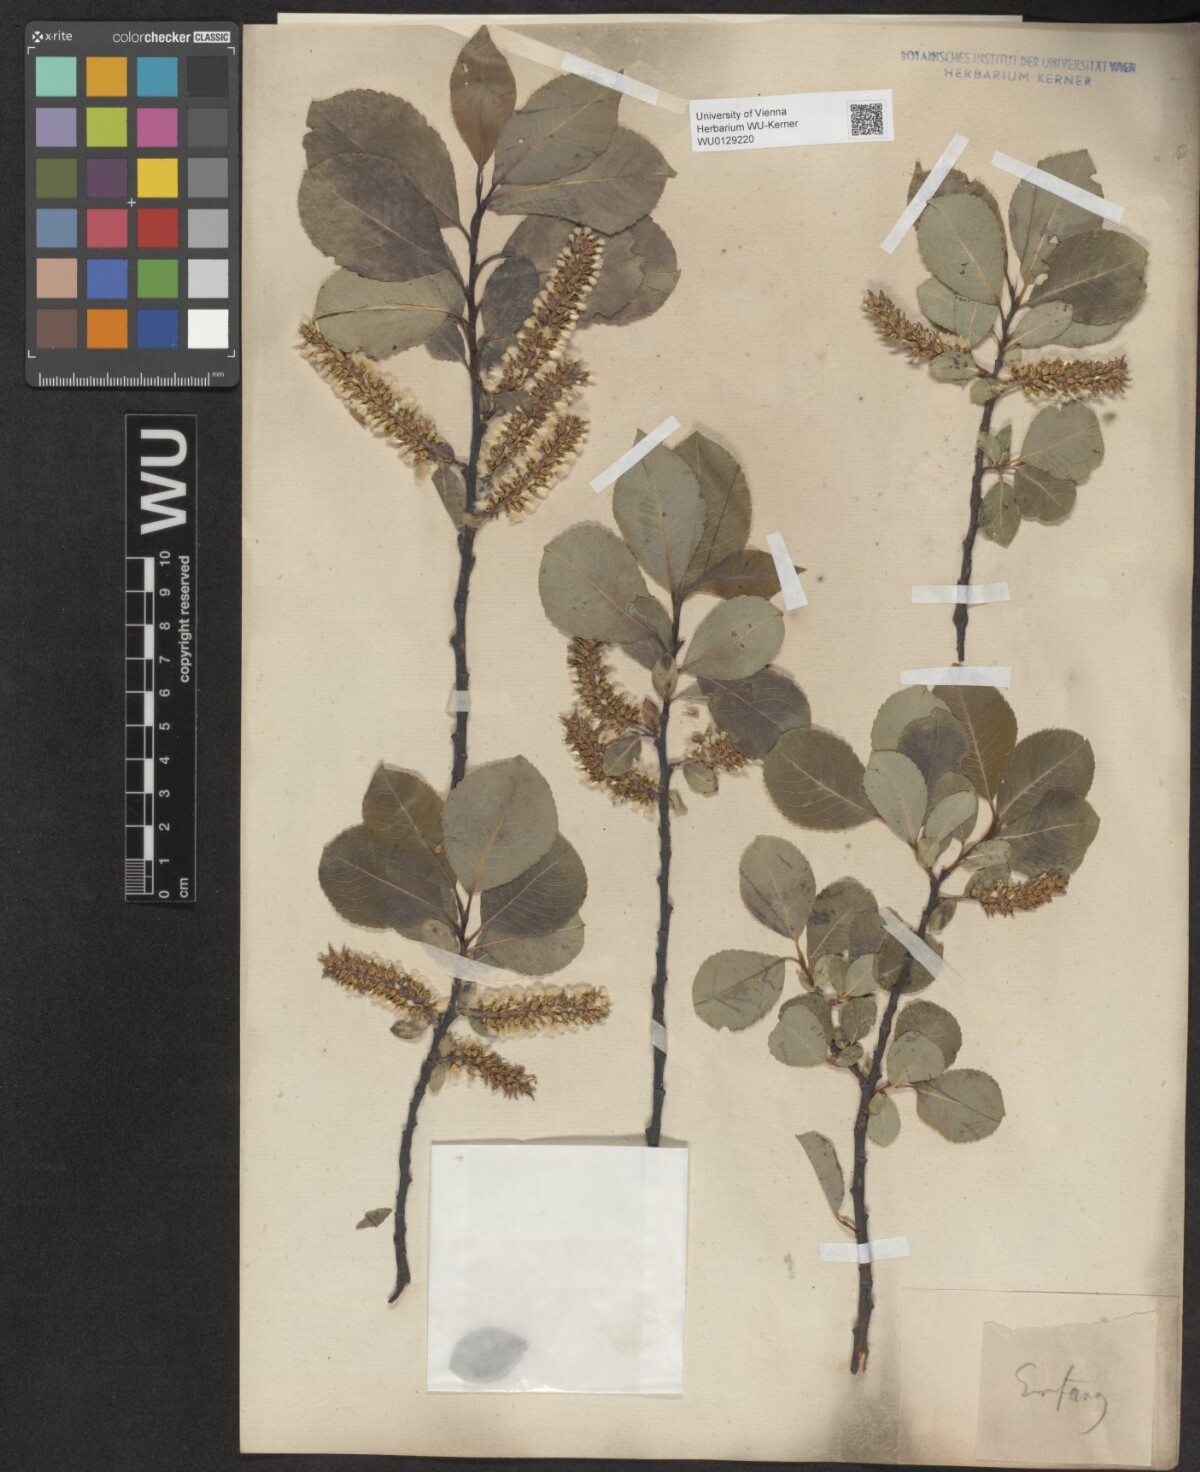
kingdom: Plantae
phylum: Tracheophyta
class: Magnoliopsida
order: Malpighiales
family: Salicaceae
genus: Salix
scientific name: Salix glabra
